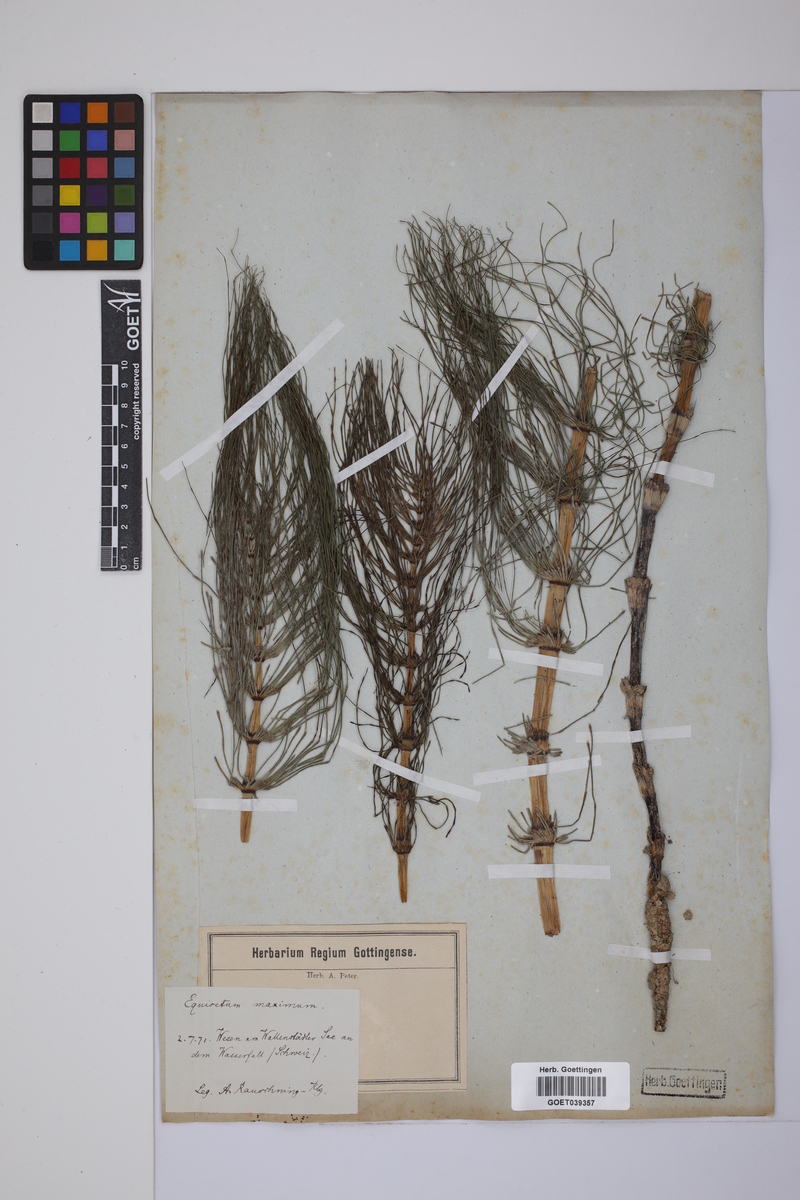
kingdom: Plantae
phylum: Tracheophyta
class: Polypodiopsida
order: Equisetales
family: Equisetaceae
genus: Equisetum
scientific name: Equisetum telmateia
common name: Great horsetail
